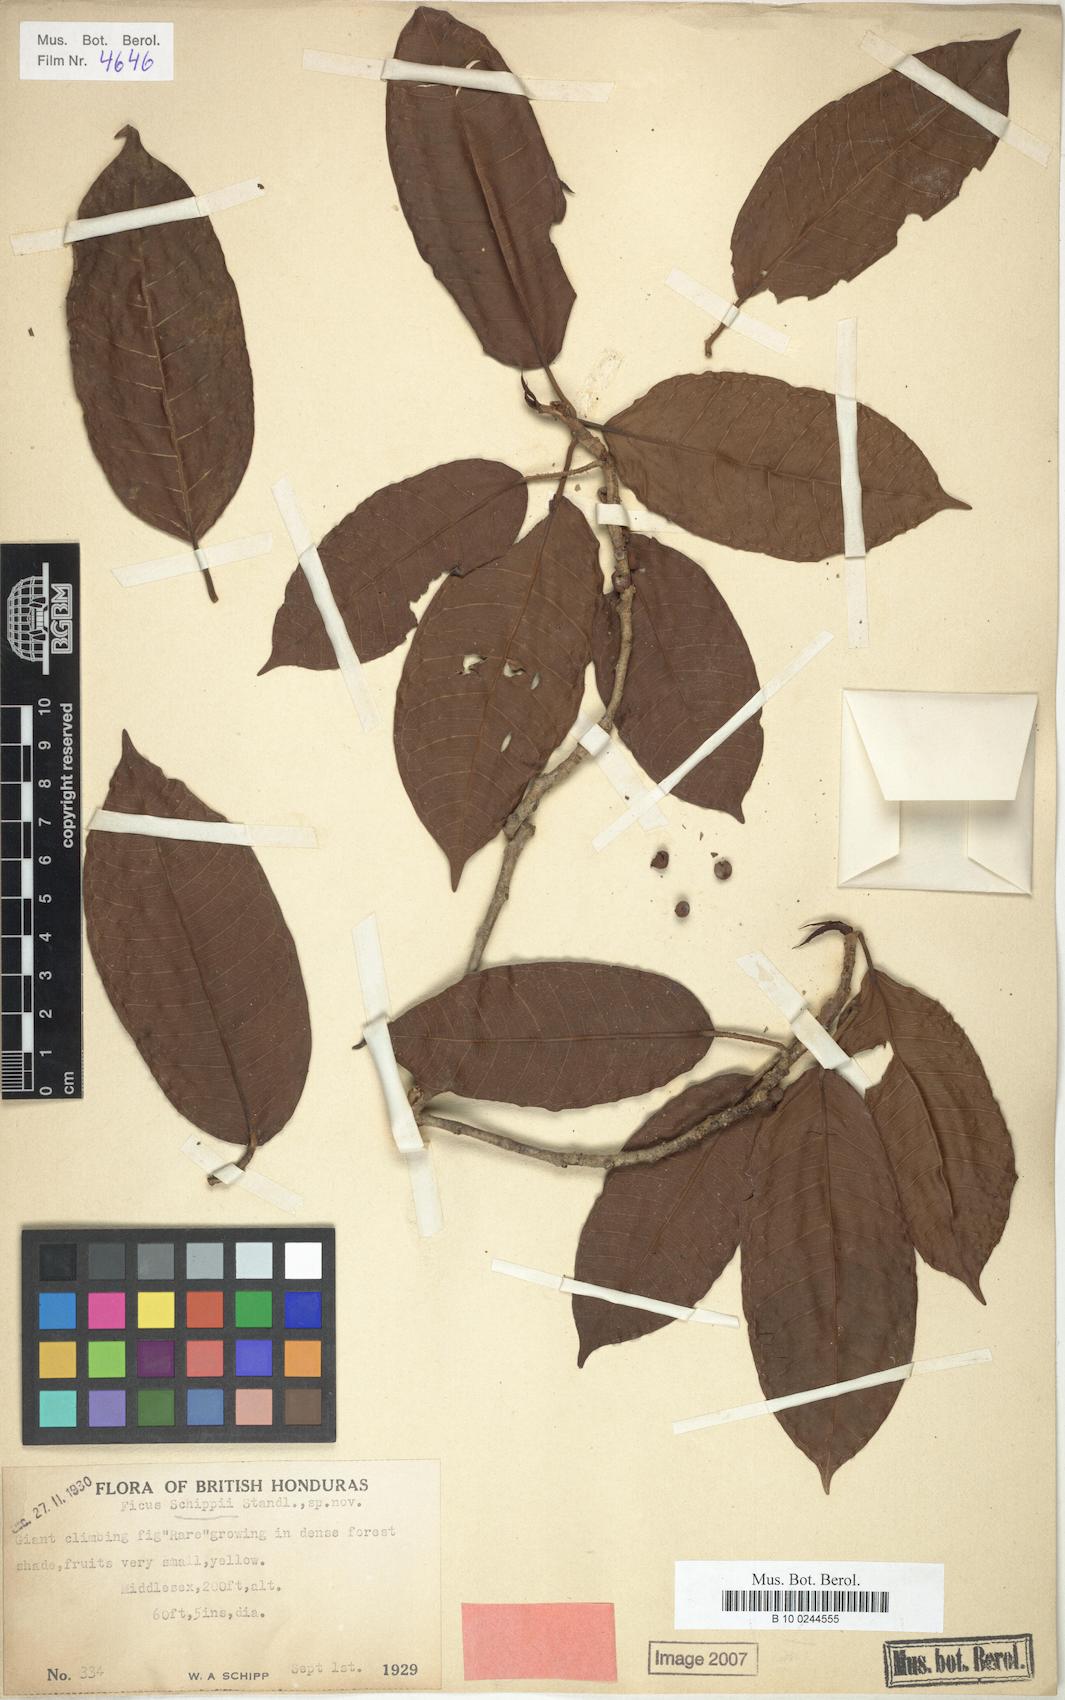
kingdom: Plantae
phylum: Tracheophyta
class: Magnoliopsida
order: Rosales
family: Moraceae
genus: Ficus
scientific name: Ficus schippii
